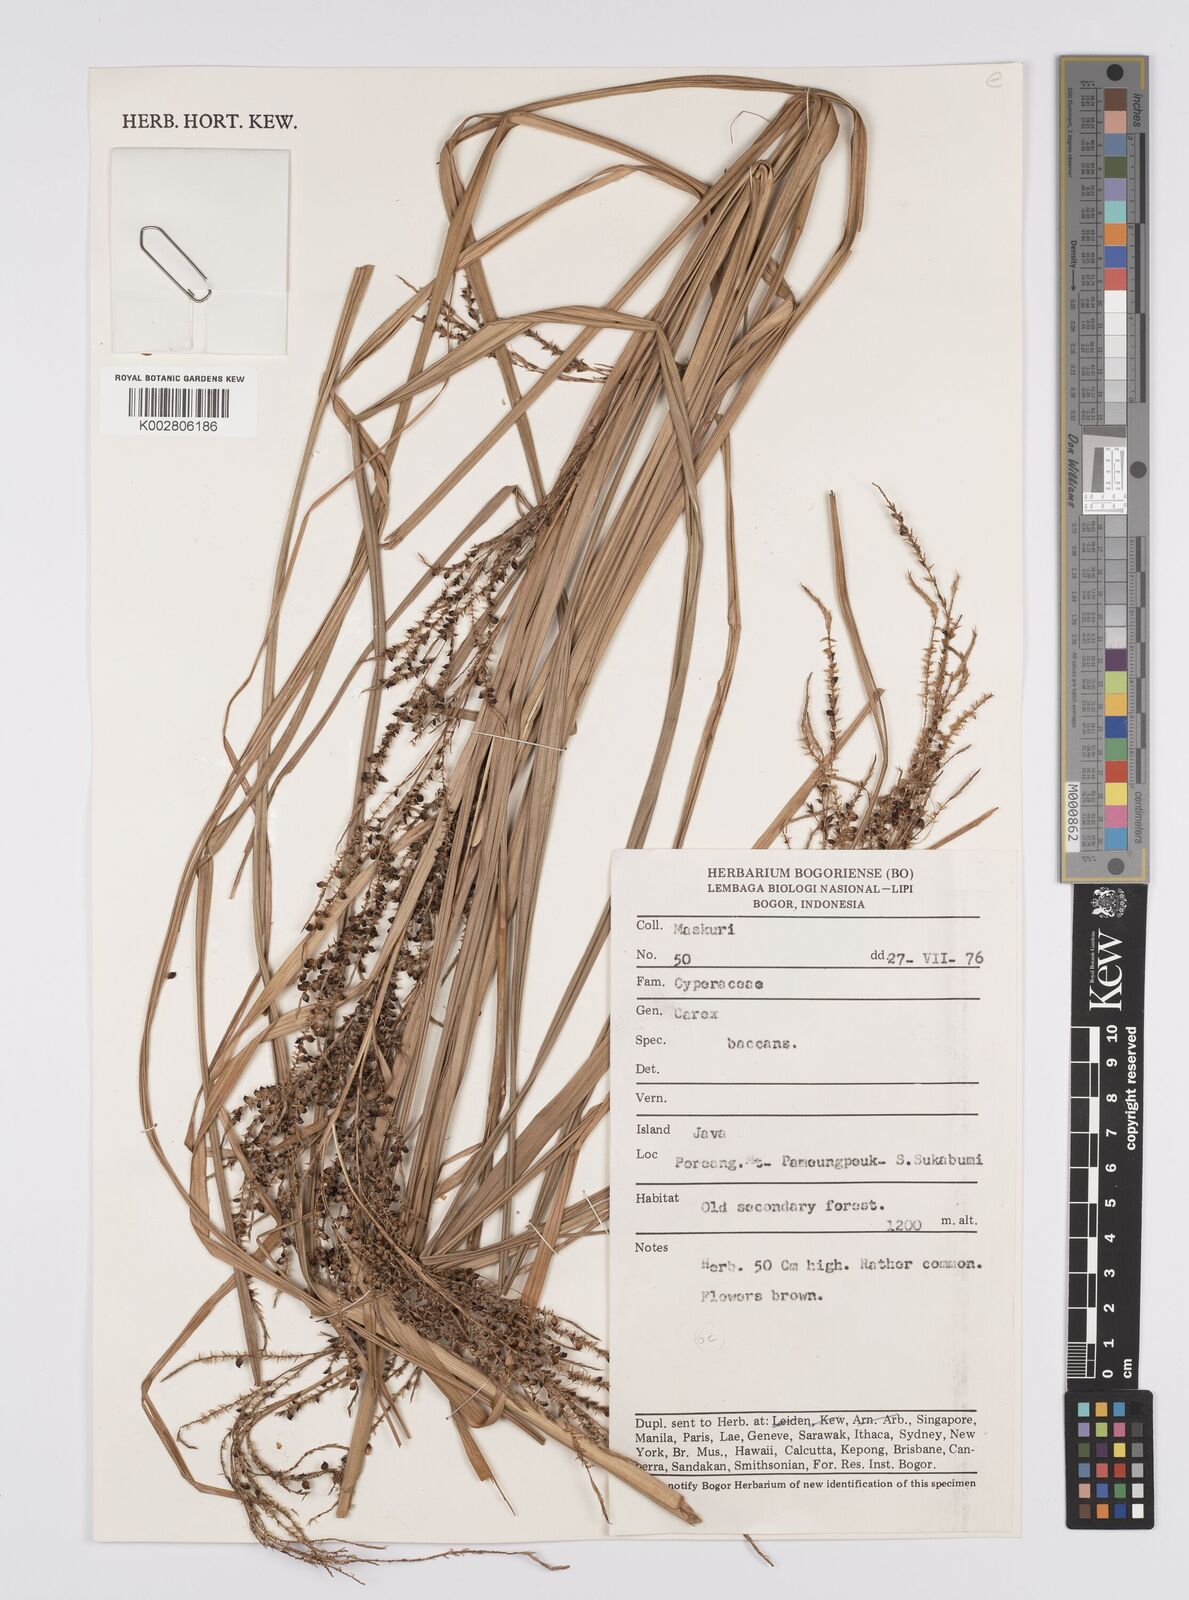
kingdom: Plantae
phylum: Tracheophyta
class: Liliopsida
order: Poales
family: Cyperaceae
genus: Carex
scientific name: Carex baccans
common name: Crimson seeded sedge
